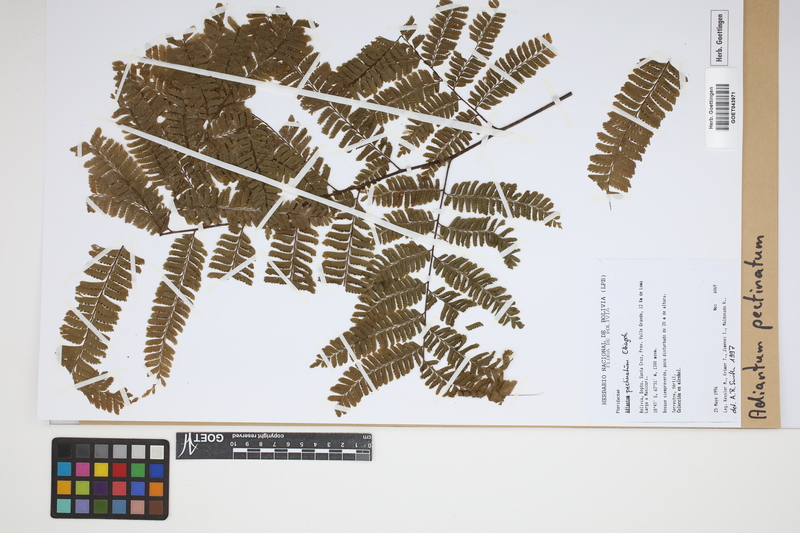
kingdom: Plantae
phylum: Tracheophyta
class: Polypodiopsida
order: Polypodiales
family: Pteridaceae
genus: Adiantum
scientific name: Adiantum pectinatum
